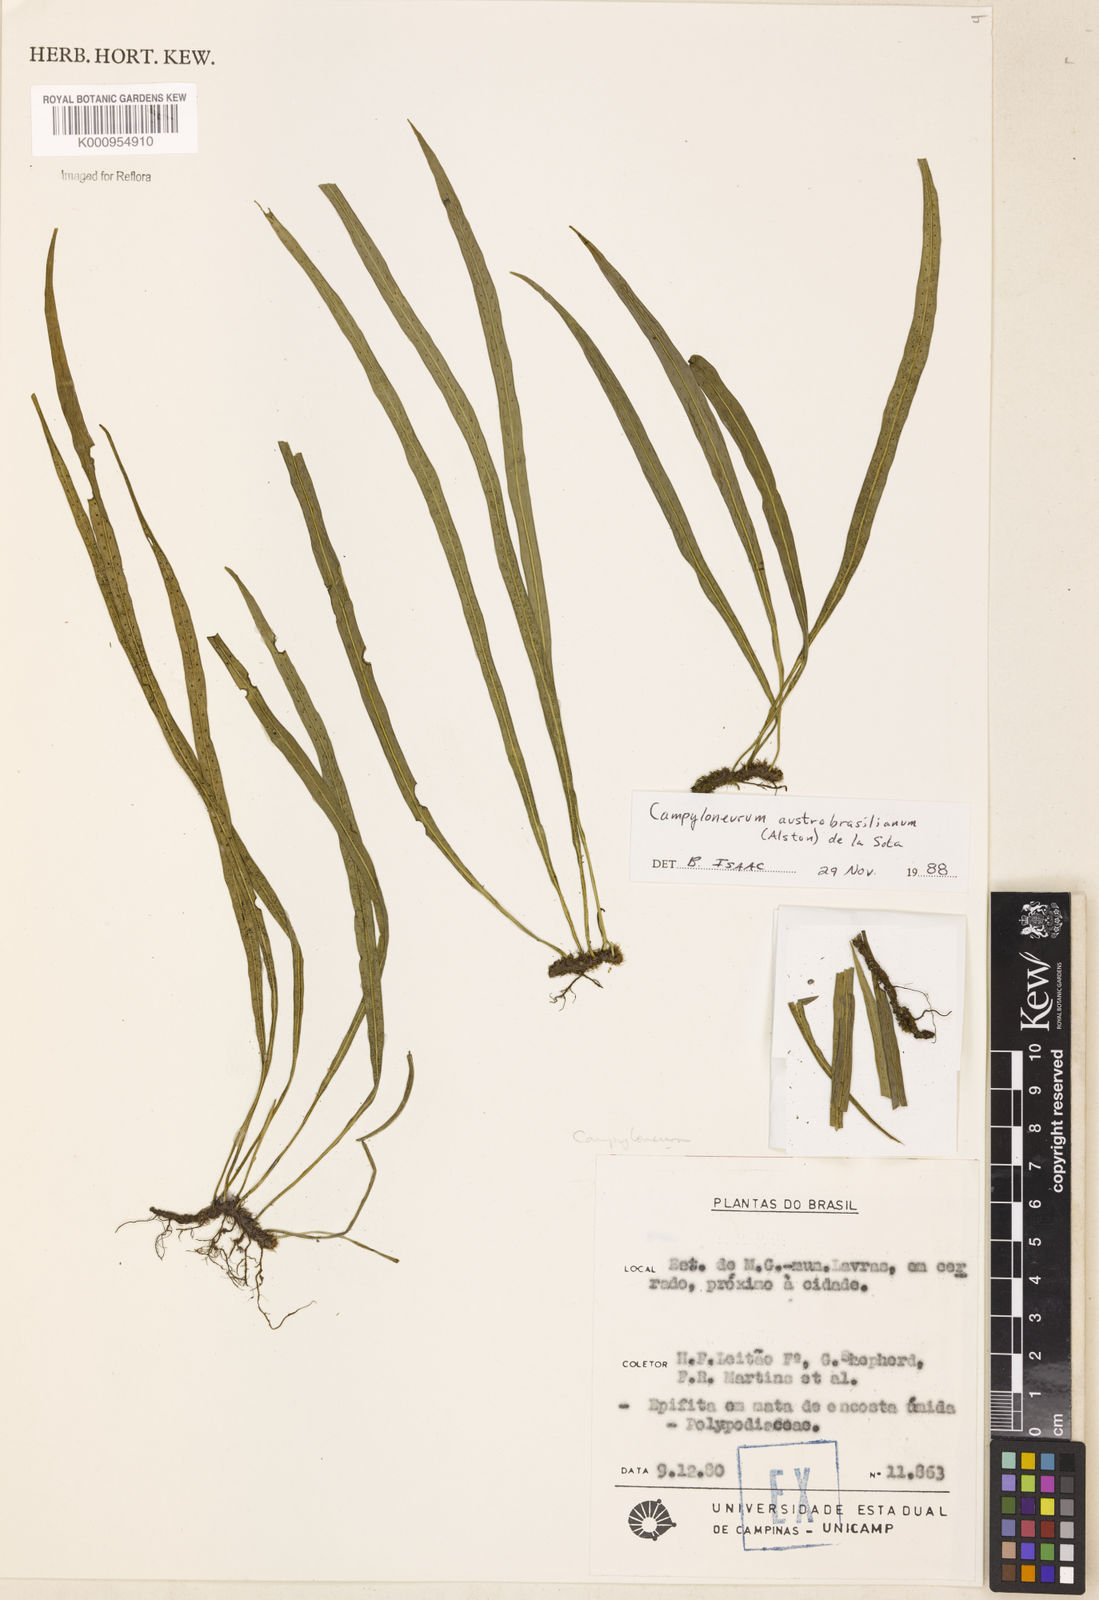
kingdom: Plantae
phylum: Tracheophyta
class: Polypodiopsida
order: Polypodiales
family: Polypodiaceae
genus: Campyloneurum
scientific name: Campyloneurum
